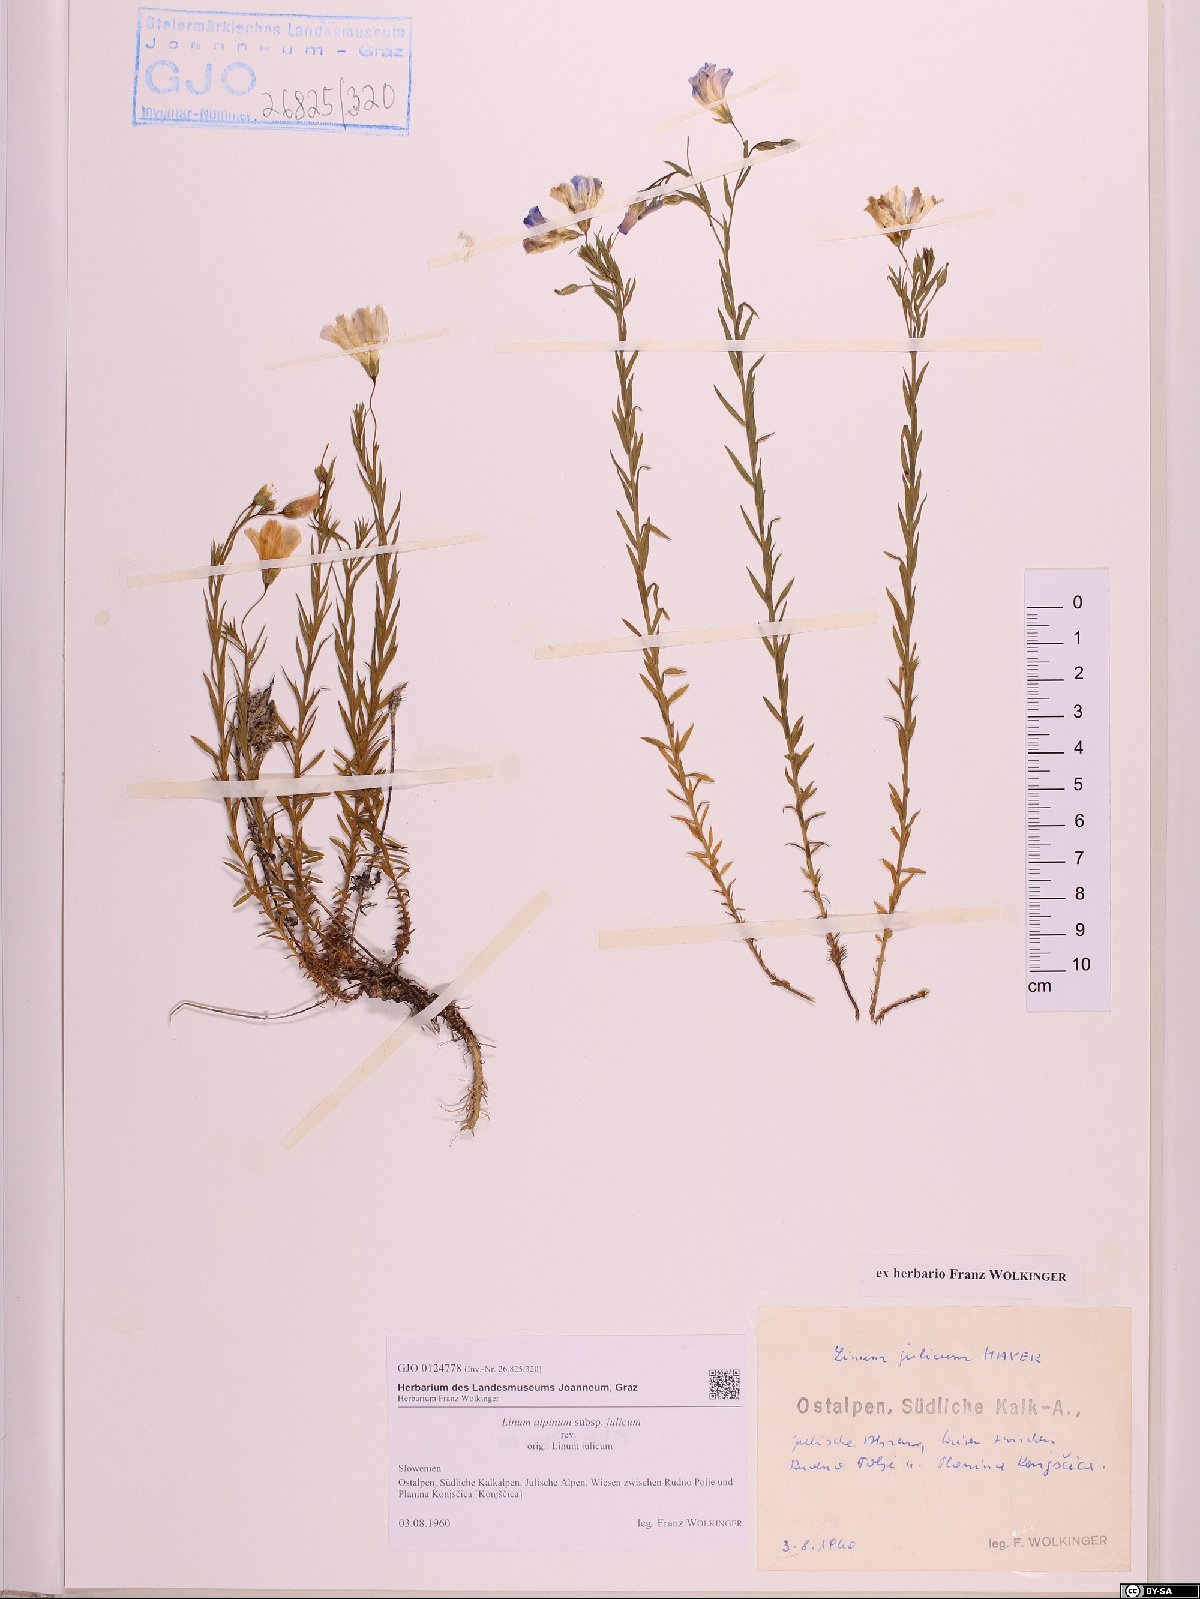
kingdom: Plantae
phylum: Tracheophyta
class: Magnoliopsida
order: Malpighiales
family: Linaceae
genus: Linum
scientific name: Linum alpinum
